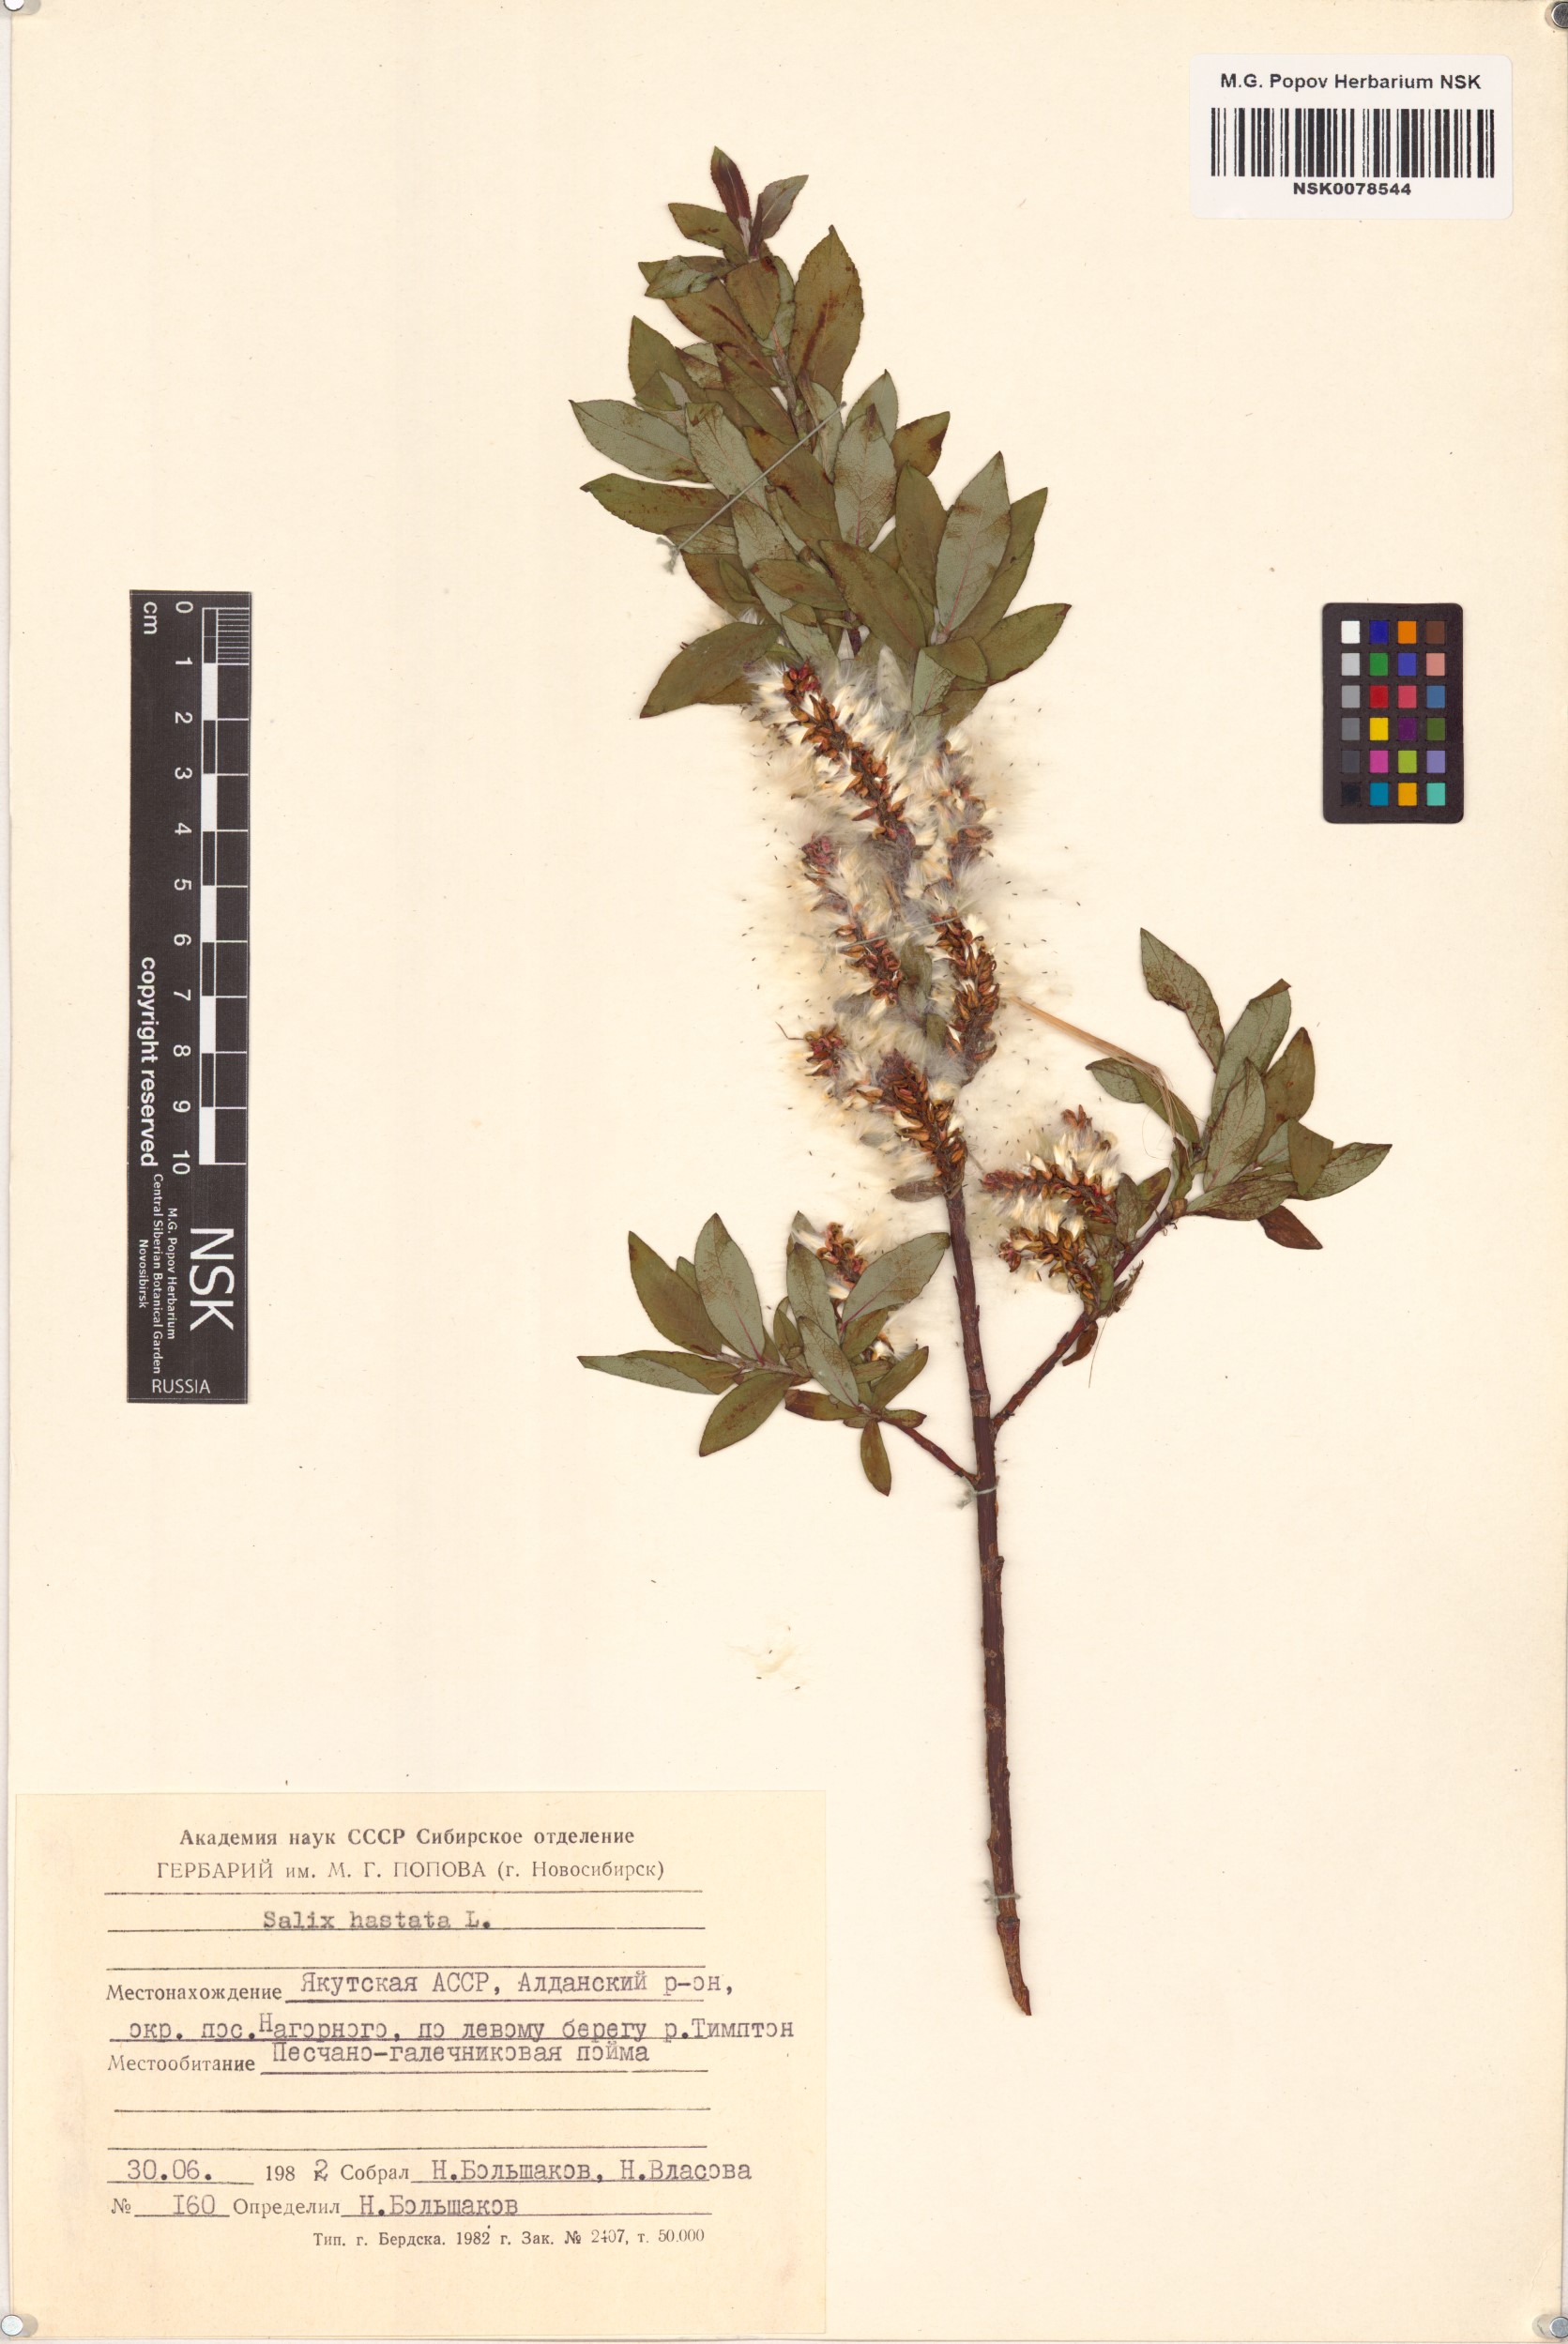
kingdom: Plantae
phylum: Tracheophyta
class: Magnoliopsida
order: Malpighiales
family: Salicaceae
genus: Salix
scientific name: Salix hastata
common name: Halberd willow
